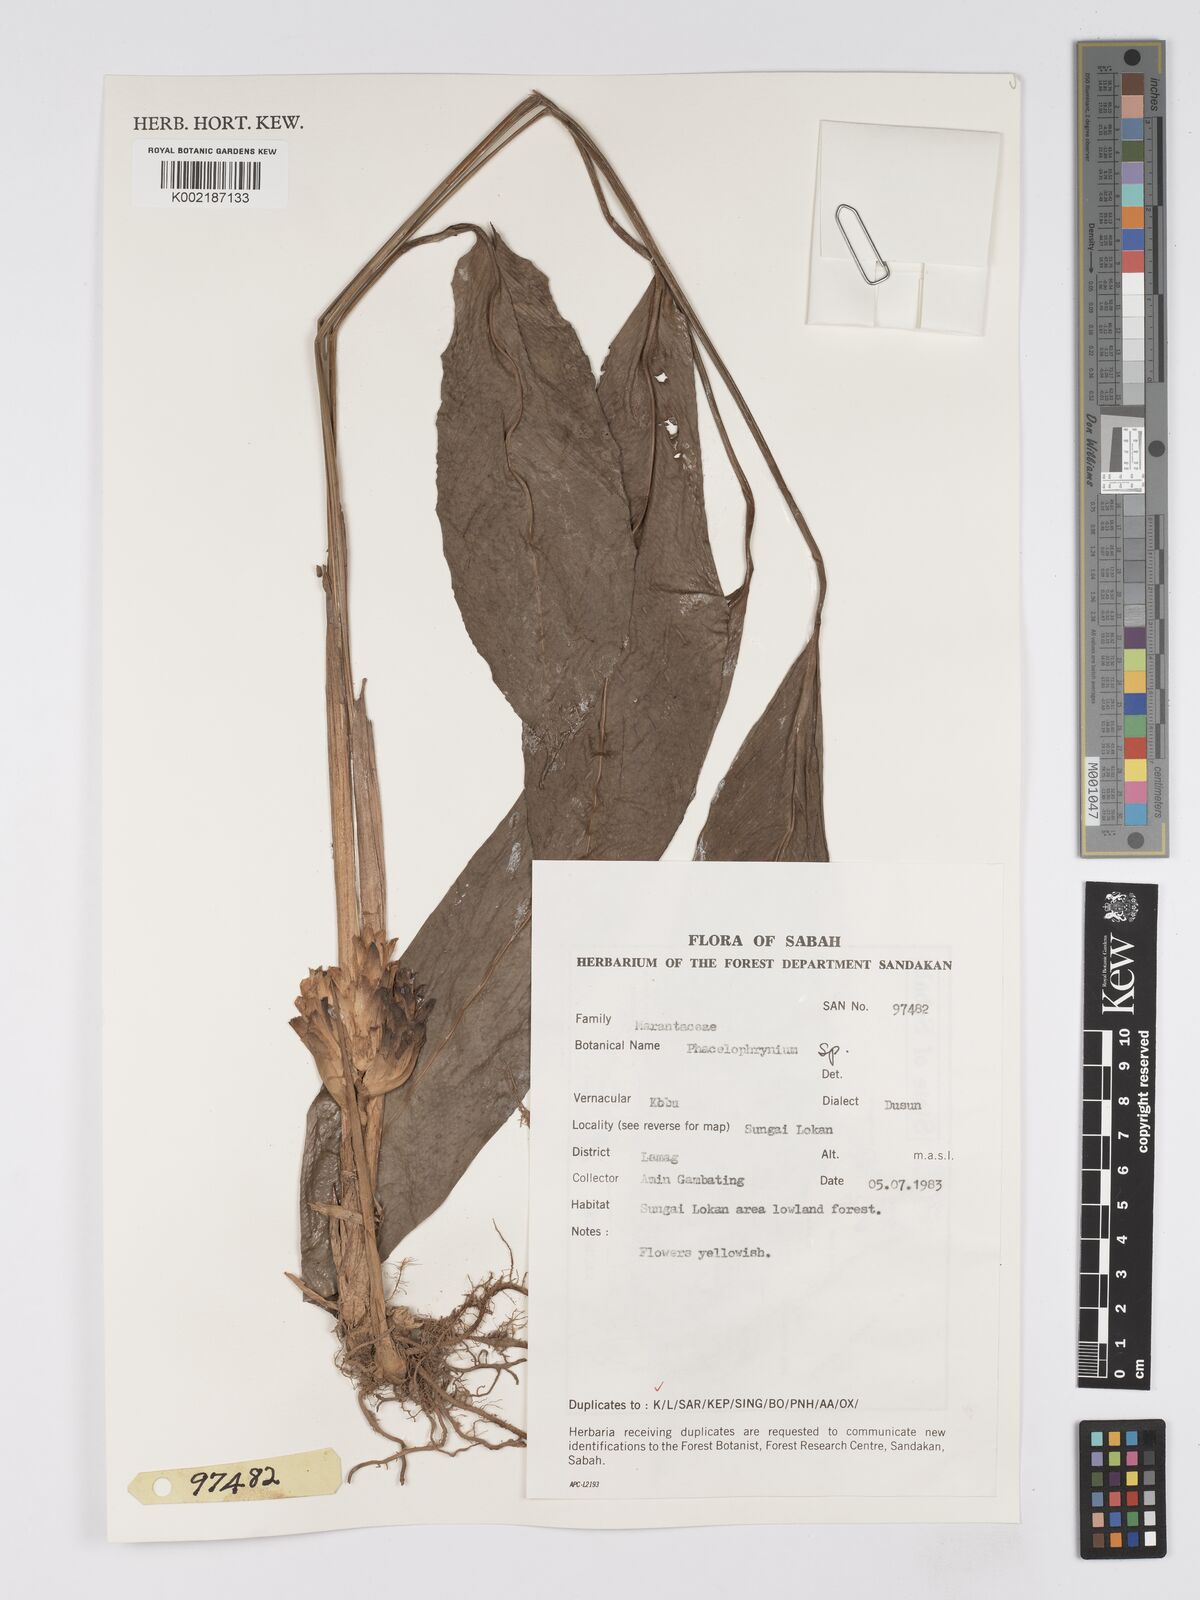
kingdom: Plantae
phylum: Tracheophyta
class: Liliopsida
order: Zingiberales
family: Marantaceae
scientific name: Marantaceae
